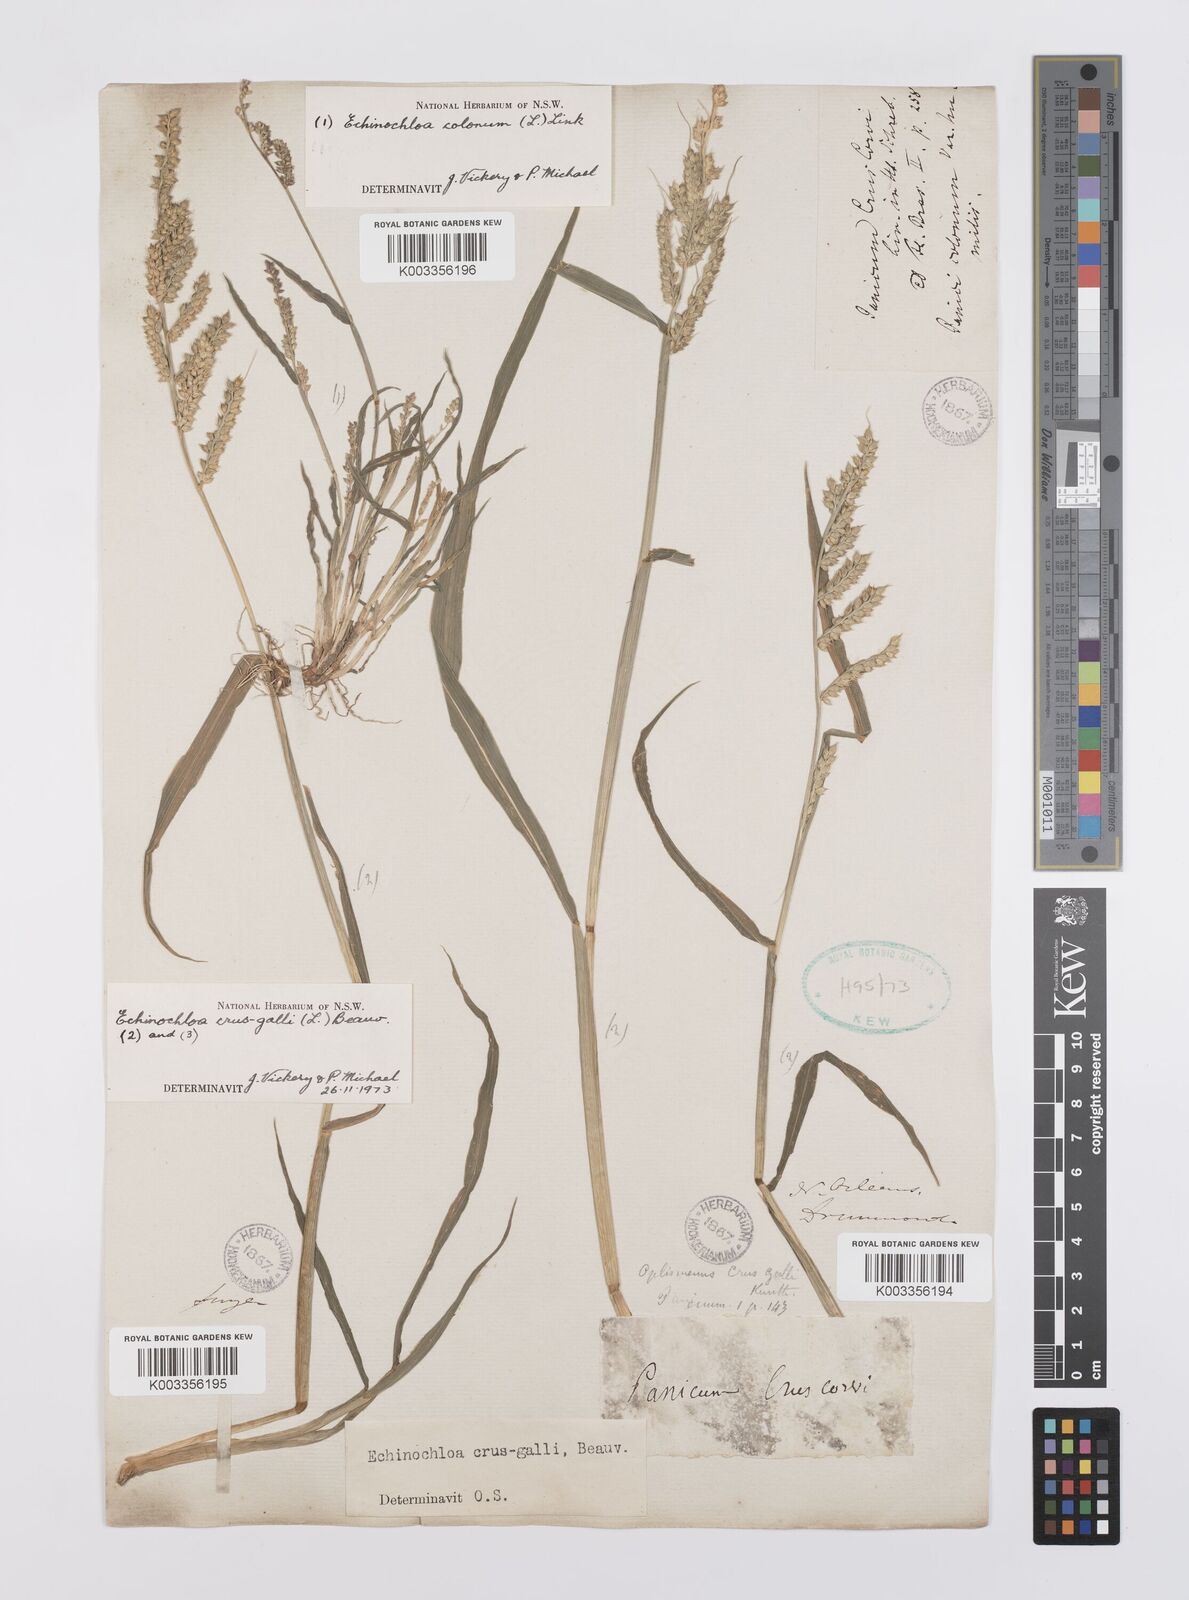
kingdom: Plantae
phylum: Tracheophyta
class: Liliopsida
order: Poales
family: Poaceae
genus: Echinochloa
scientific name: Echinochloa crus-galli
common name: Cockspur
